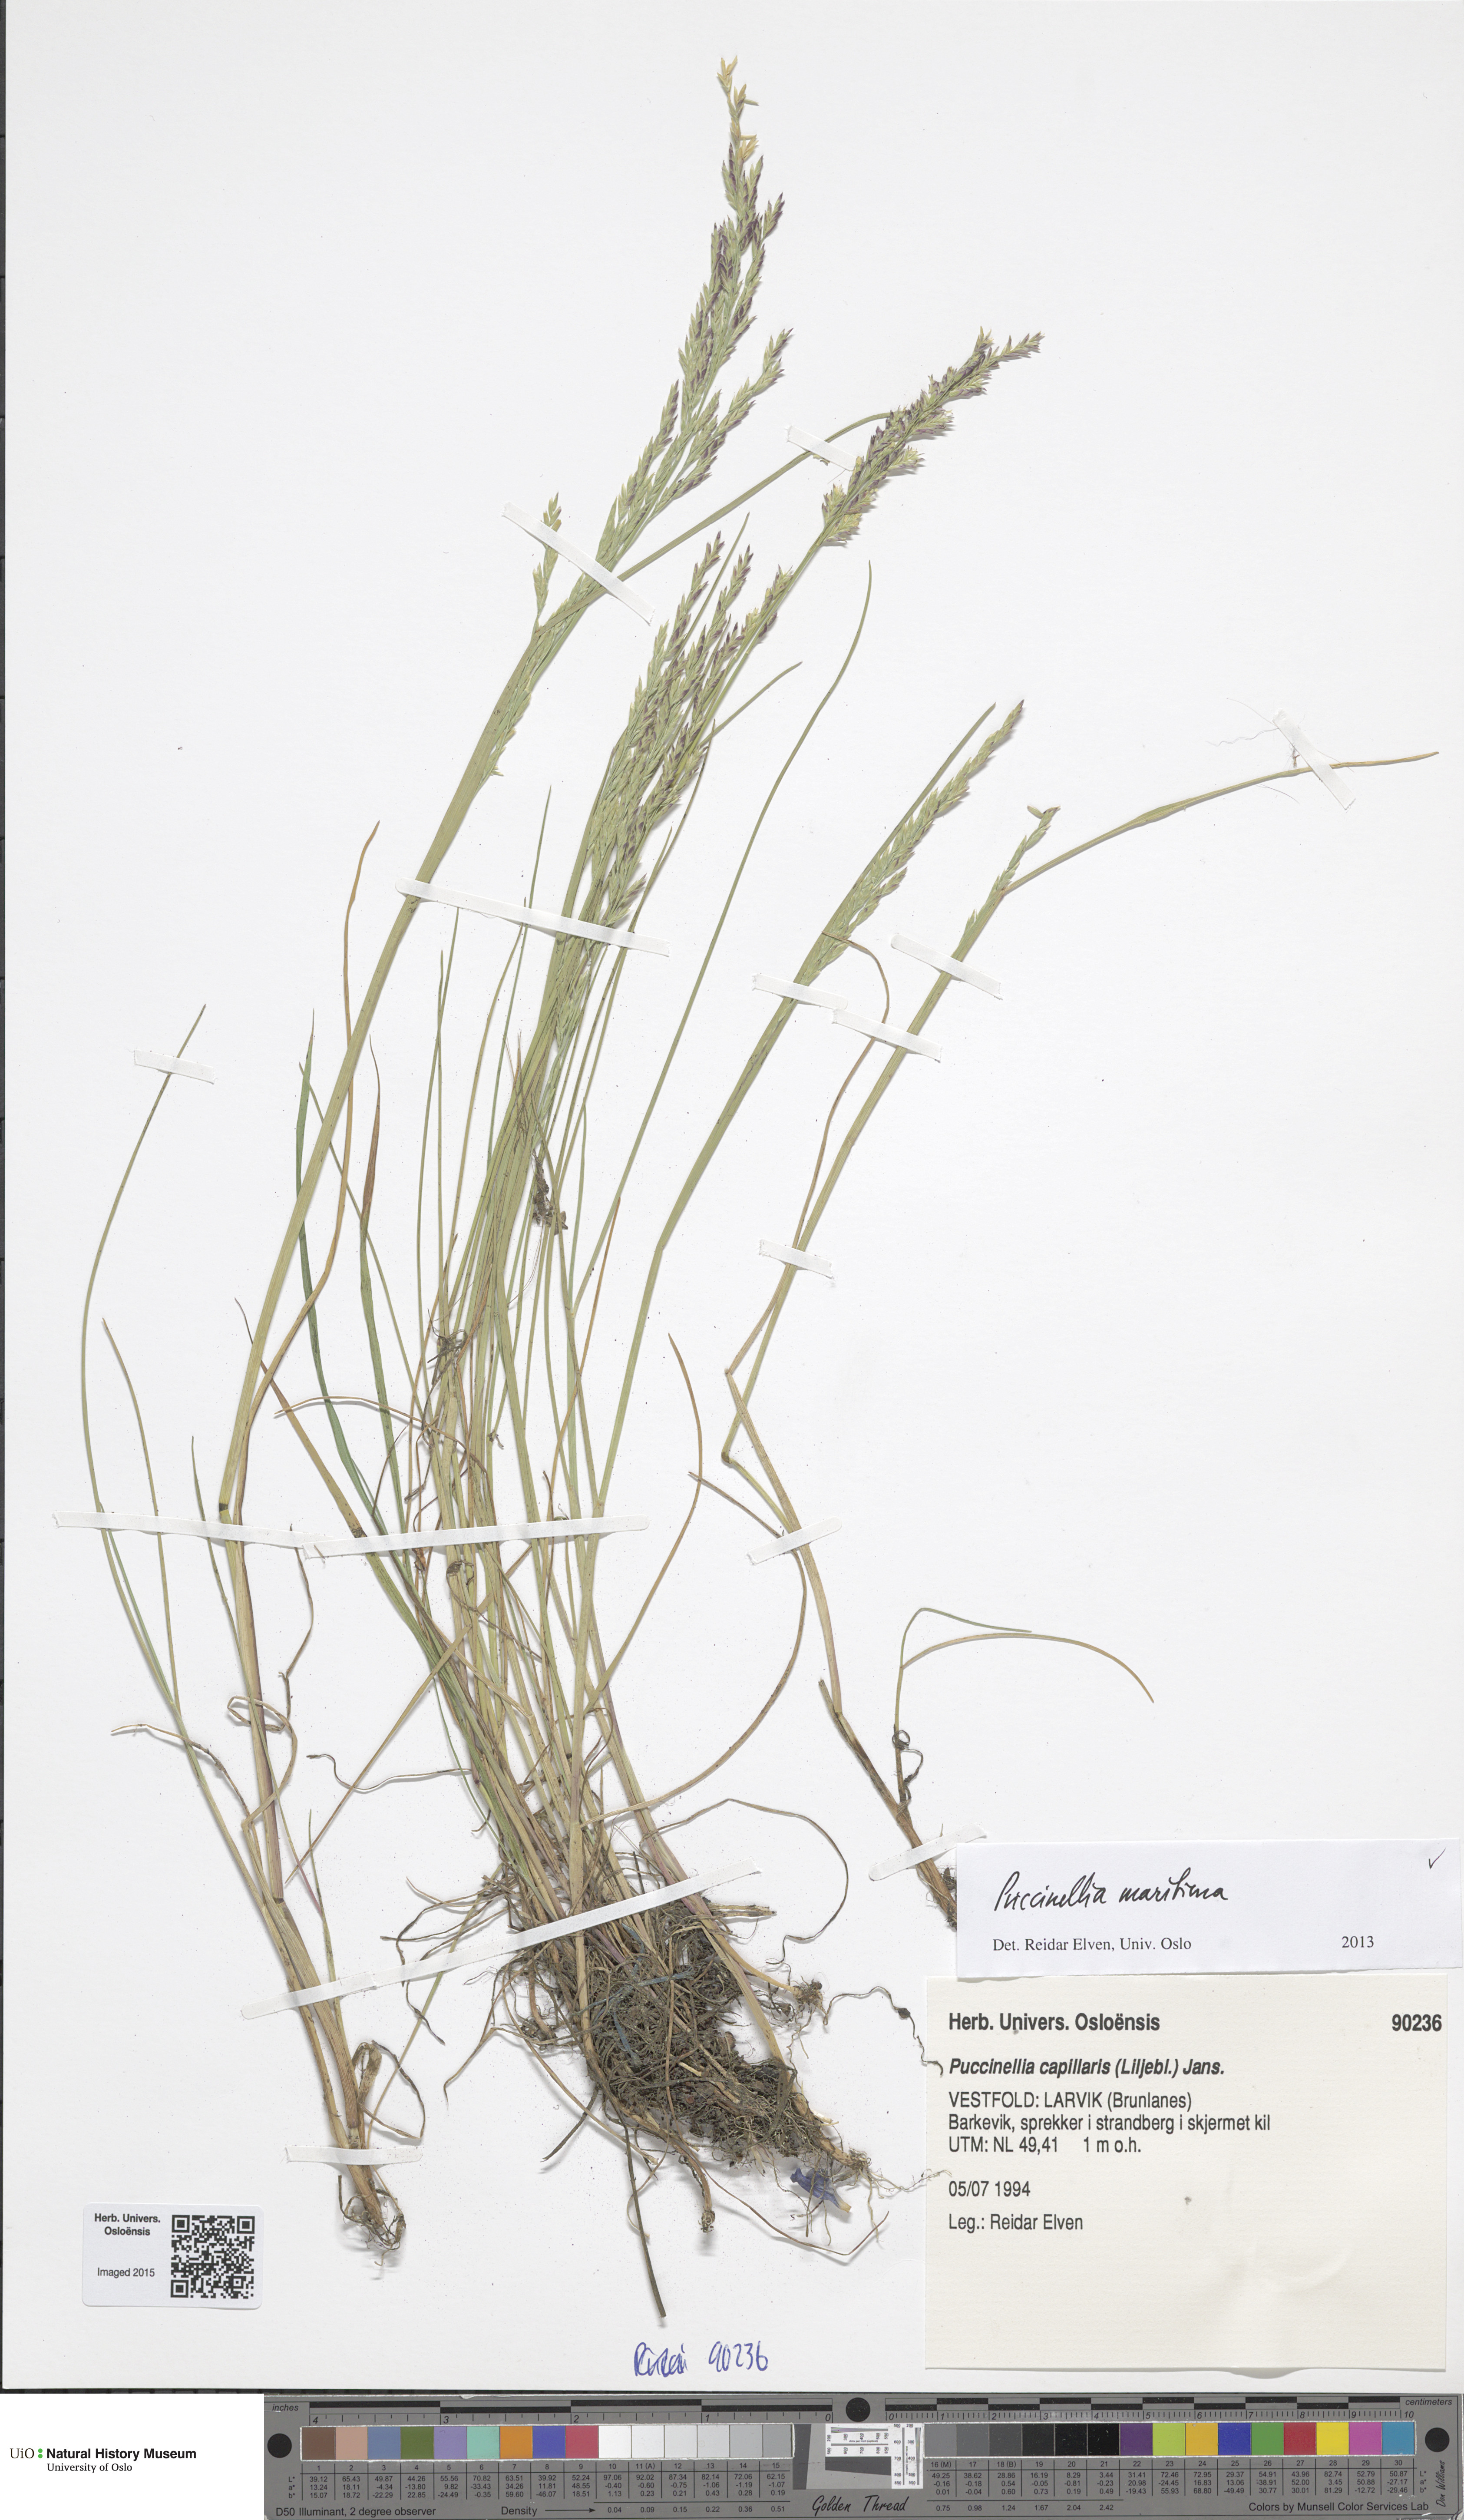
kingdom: Plantae
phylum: Tracheophyta
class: Liliopsida
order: Poales
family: Poaceae
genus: Puccinellia
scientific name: Puccinellia maritima
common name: Common saltmarsh grass
